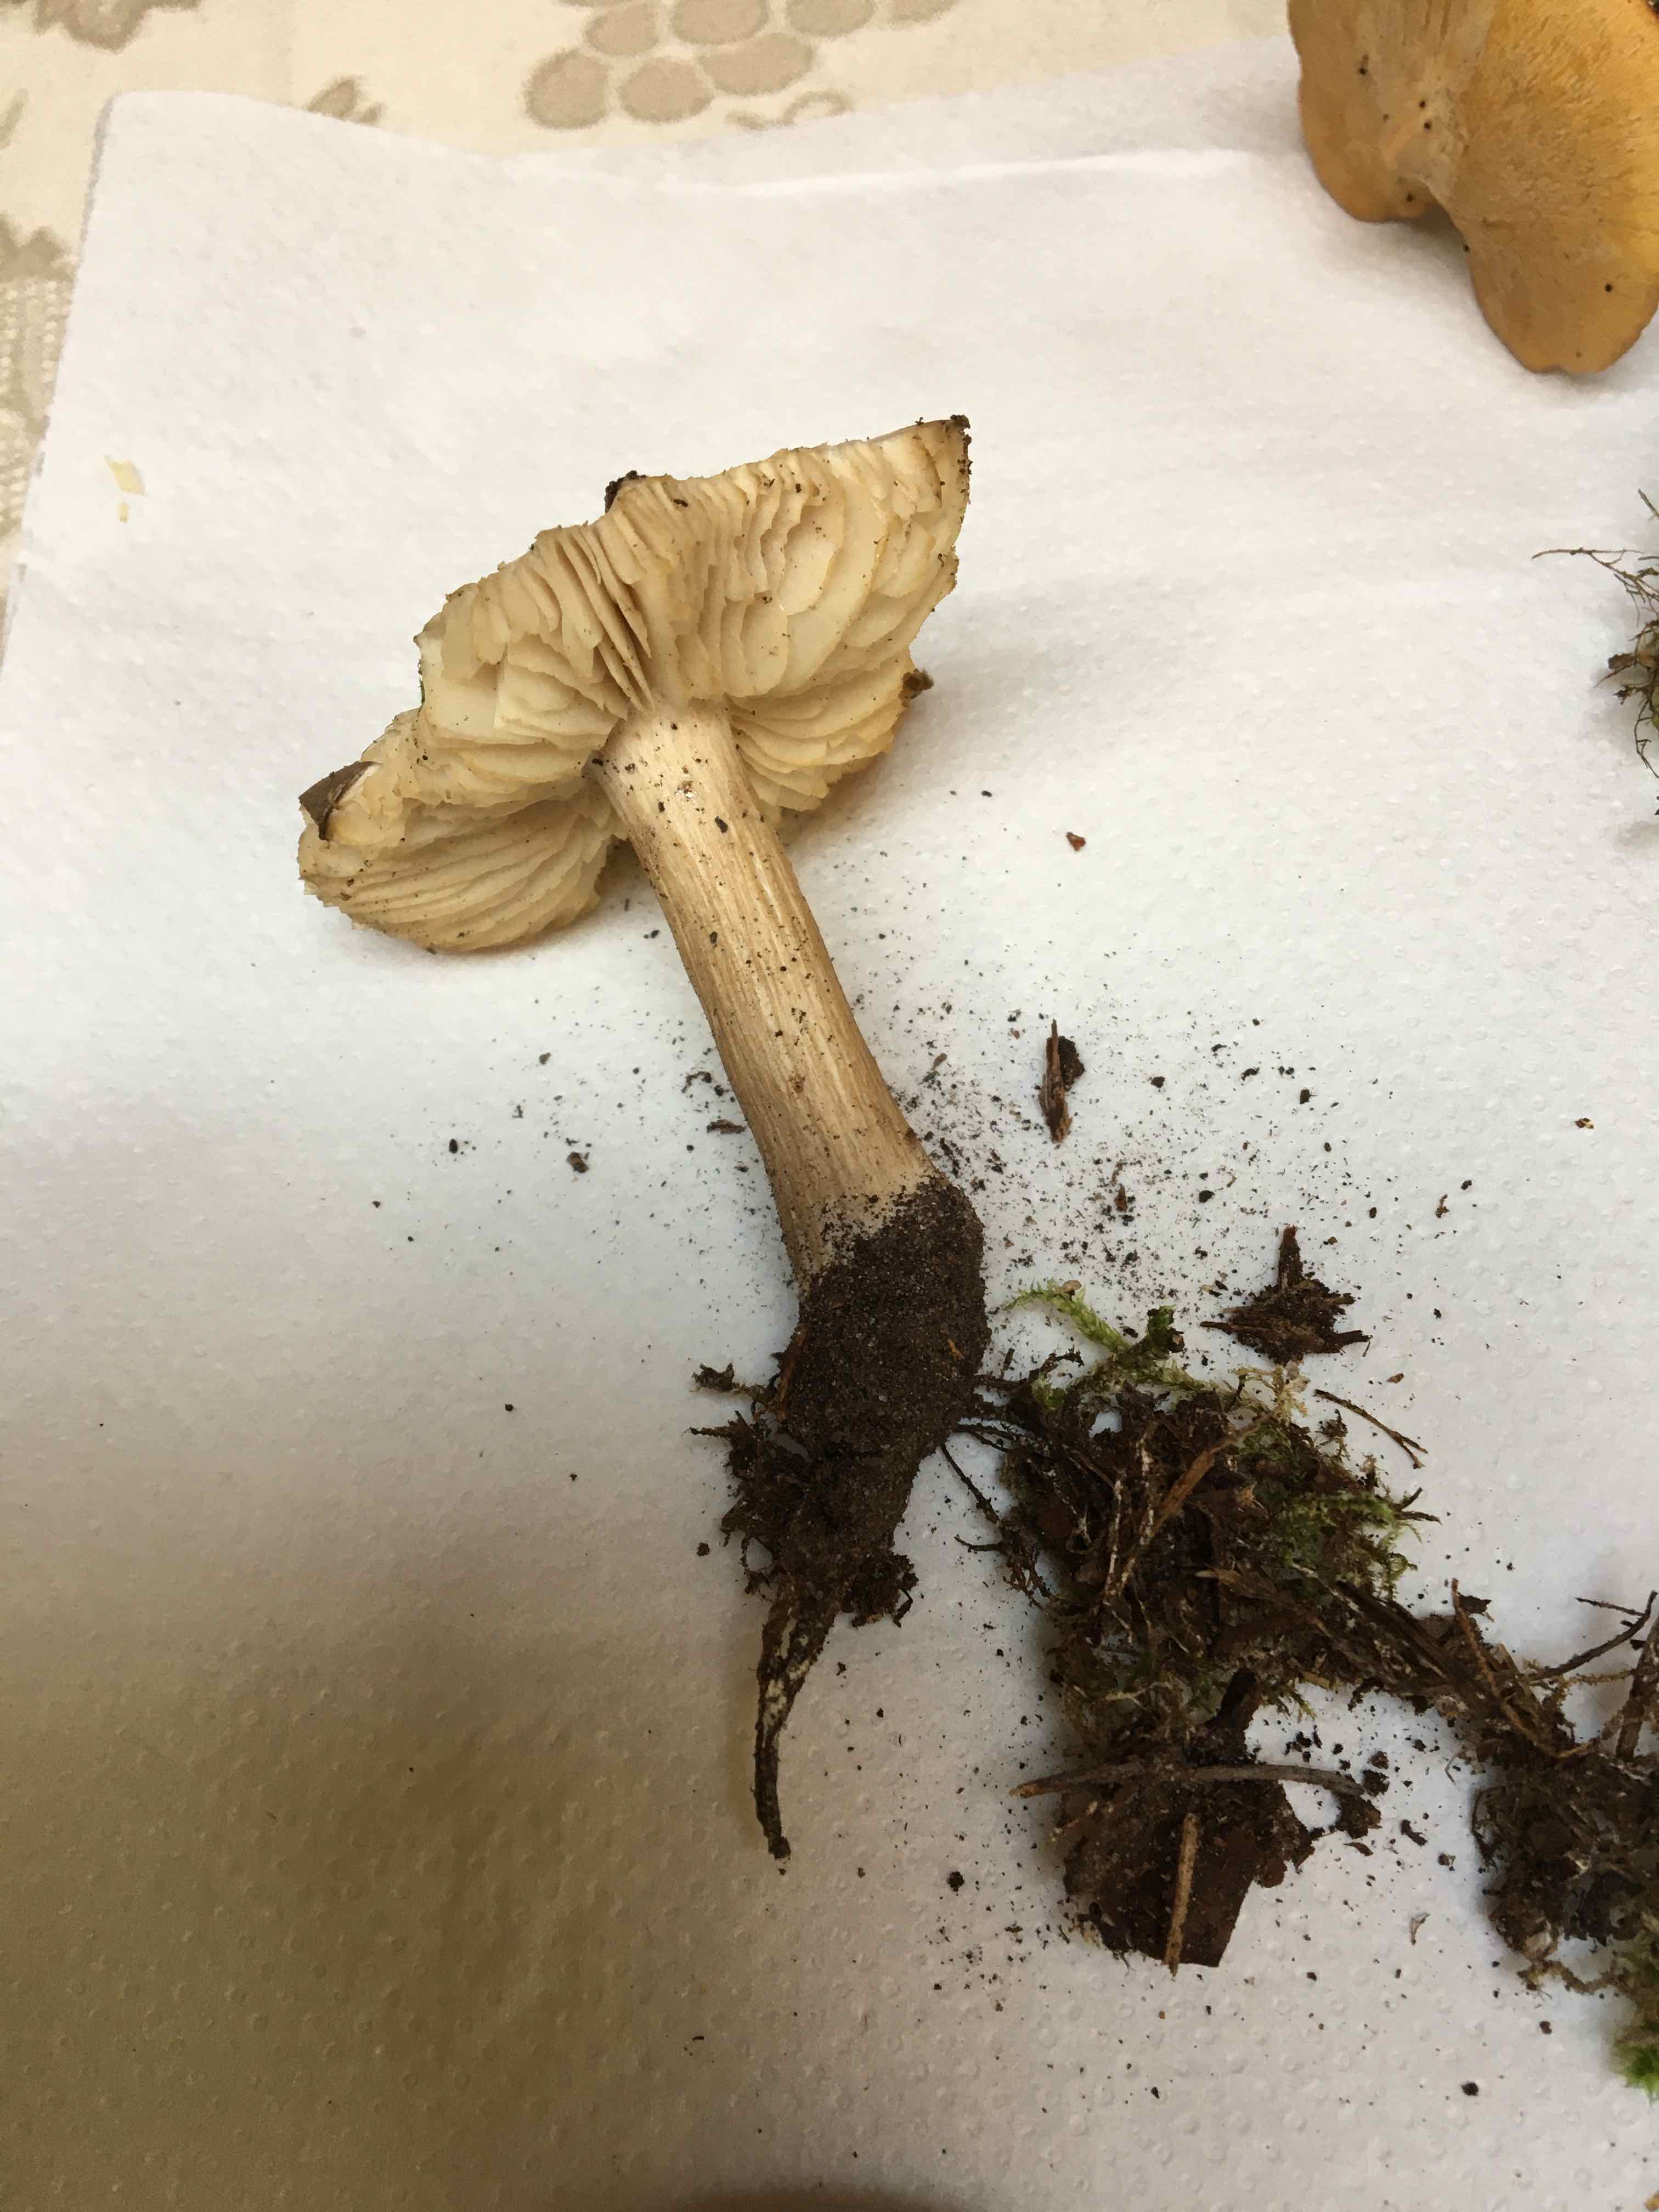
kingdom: Fungi
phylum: Basidiomycota
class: Agaricomycetes
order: Agaricales
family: Tricholomataceae
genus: Megacollybia
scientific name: Megacollybia platyphylla
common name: bredbladet væbnerhat
